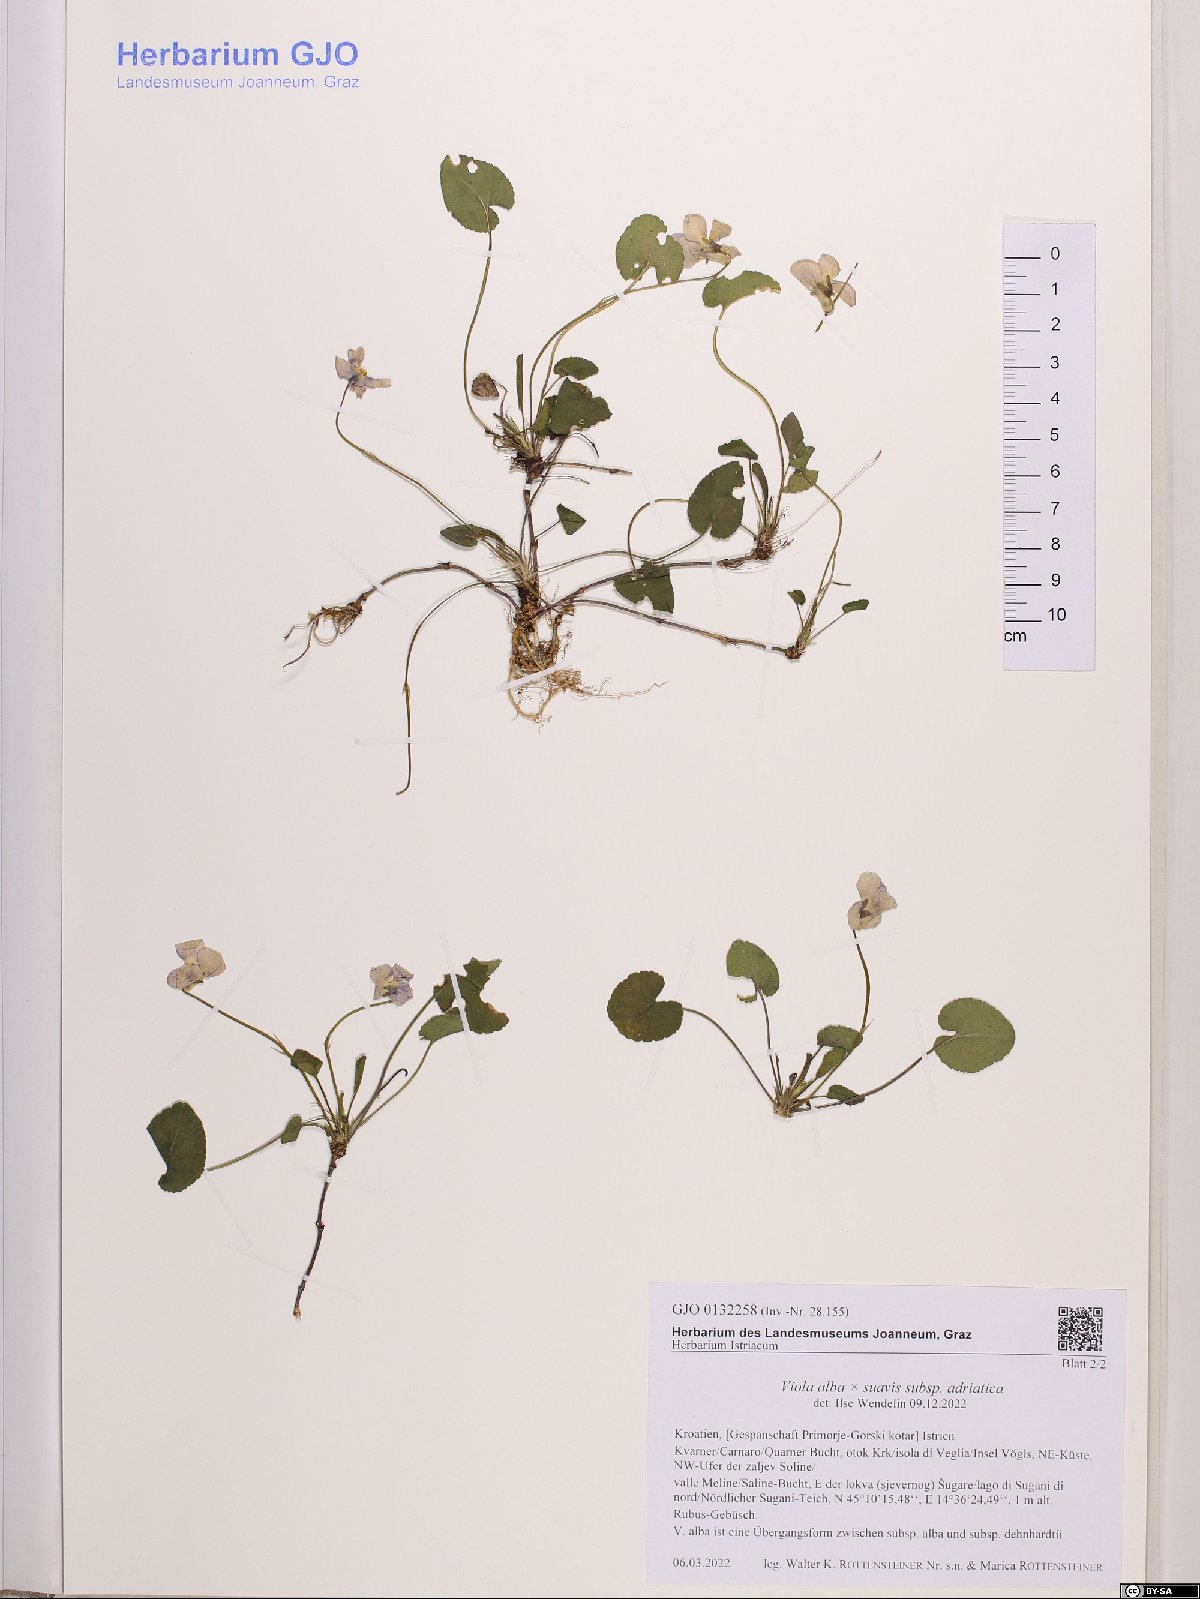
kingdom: Plantae
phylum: Tracheophyta
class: Magnoliopsida
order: Malpighiales
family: Violaceae
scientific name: Violaceae
